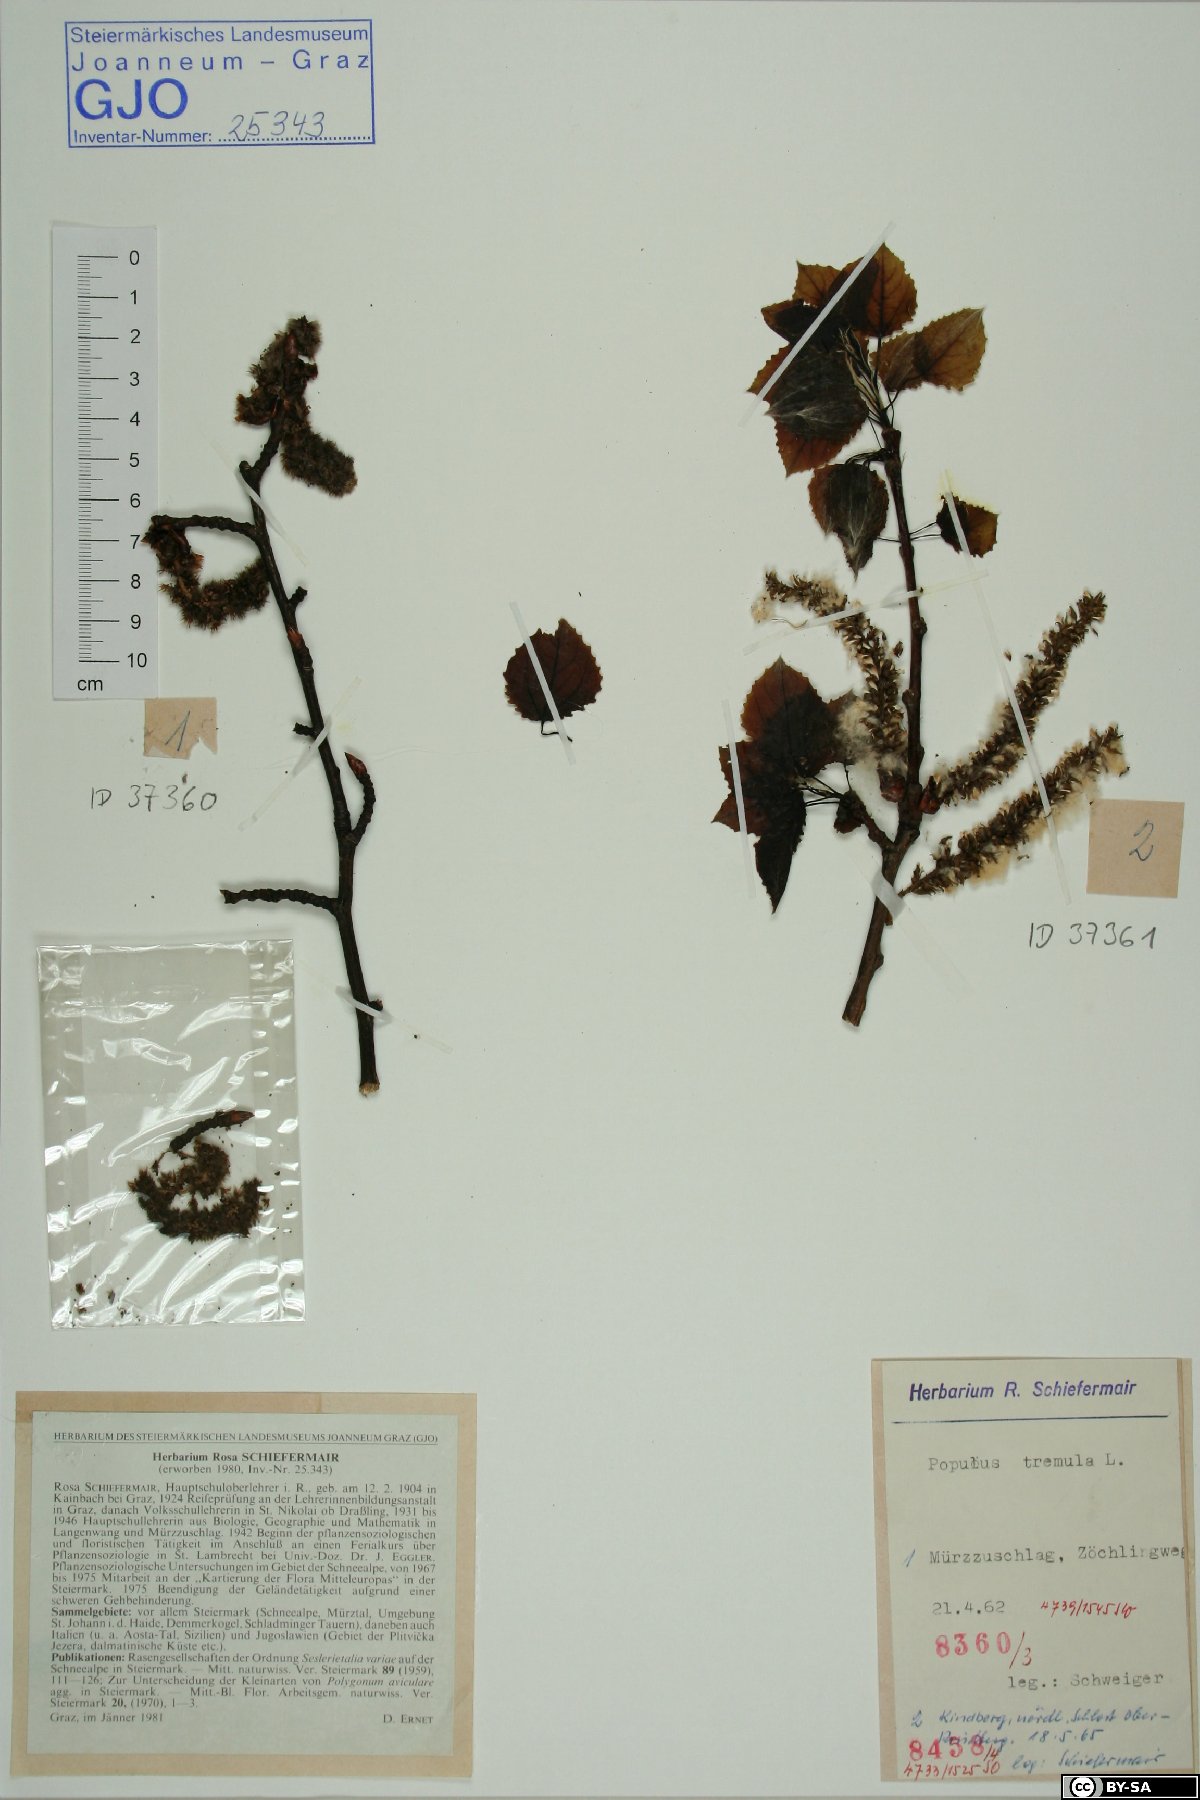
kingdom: Plantae
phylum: Tracheophyta
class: Magnoliopsida
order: Malpighiales
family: Salicaceae
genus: Populus
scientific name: Populus tremula
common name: European aspen
